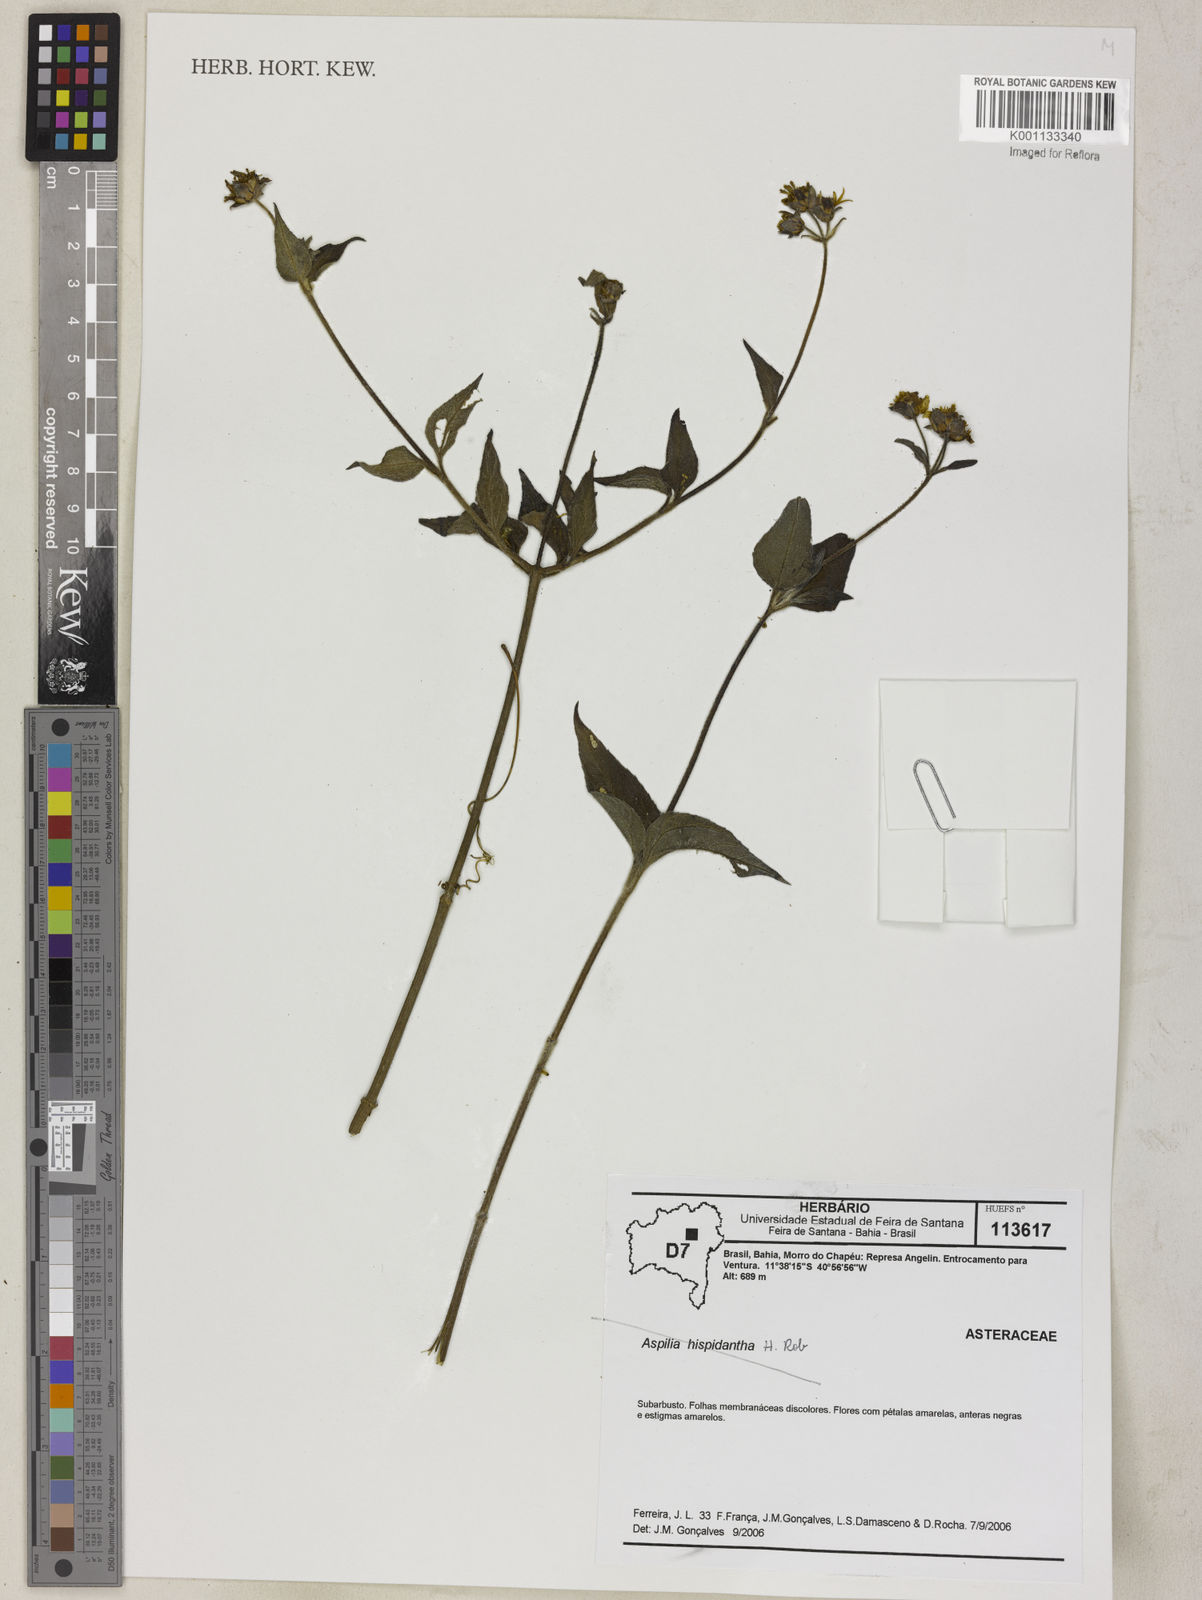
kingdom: Plantae
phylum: Tracheophyta
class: Magnoliopsida
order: Asterales
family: Asteraceae
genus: Aspilia
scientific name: Aspilia
